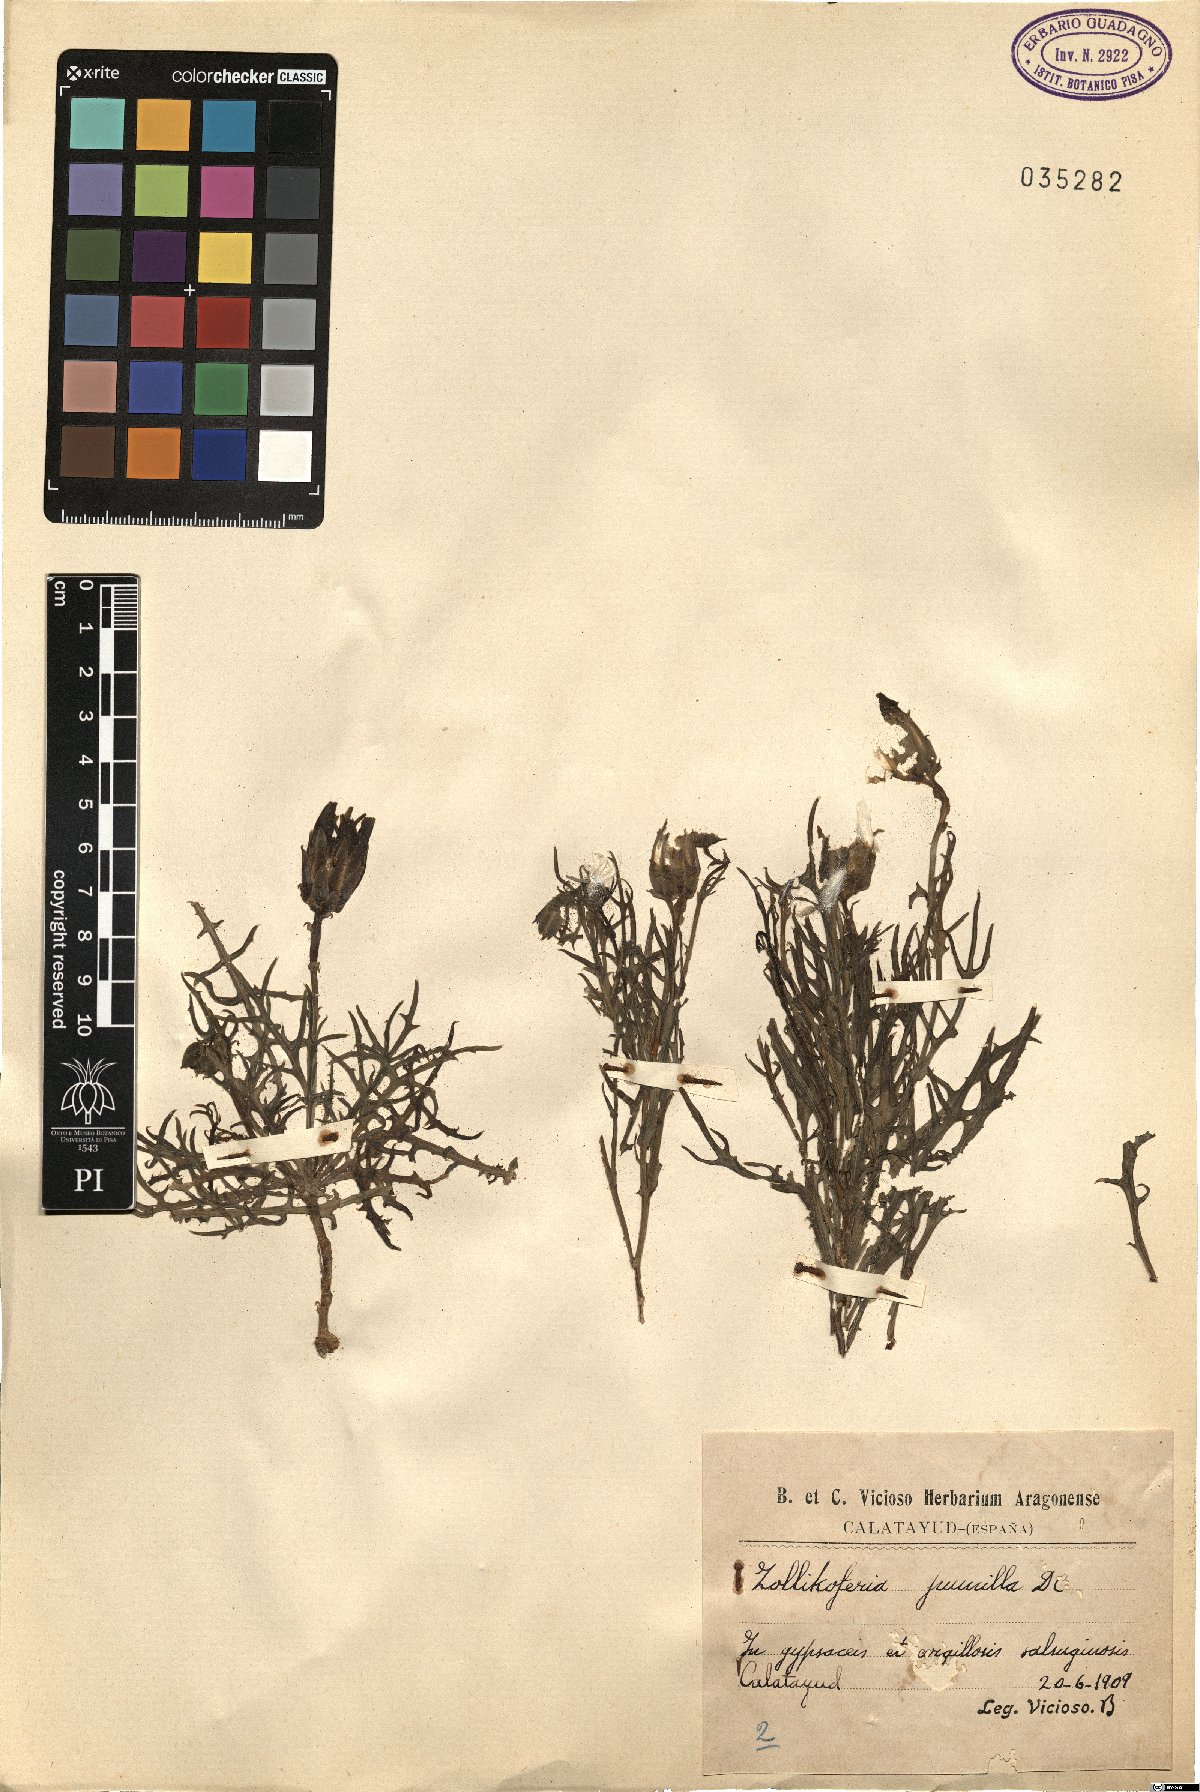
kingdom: Plantae
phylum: Tracheophyta
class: Magnoliopsida
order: Asterales
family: Asteraceae
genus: Launaea
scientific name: Launaea pumila
